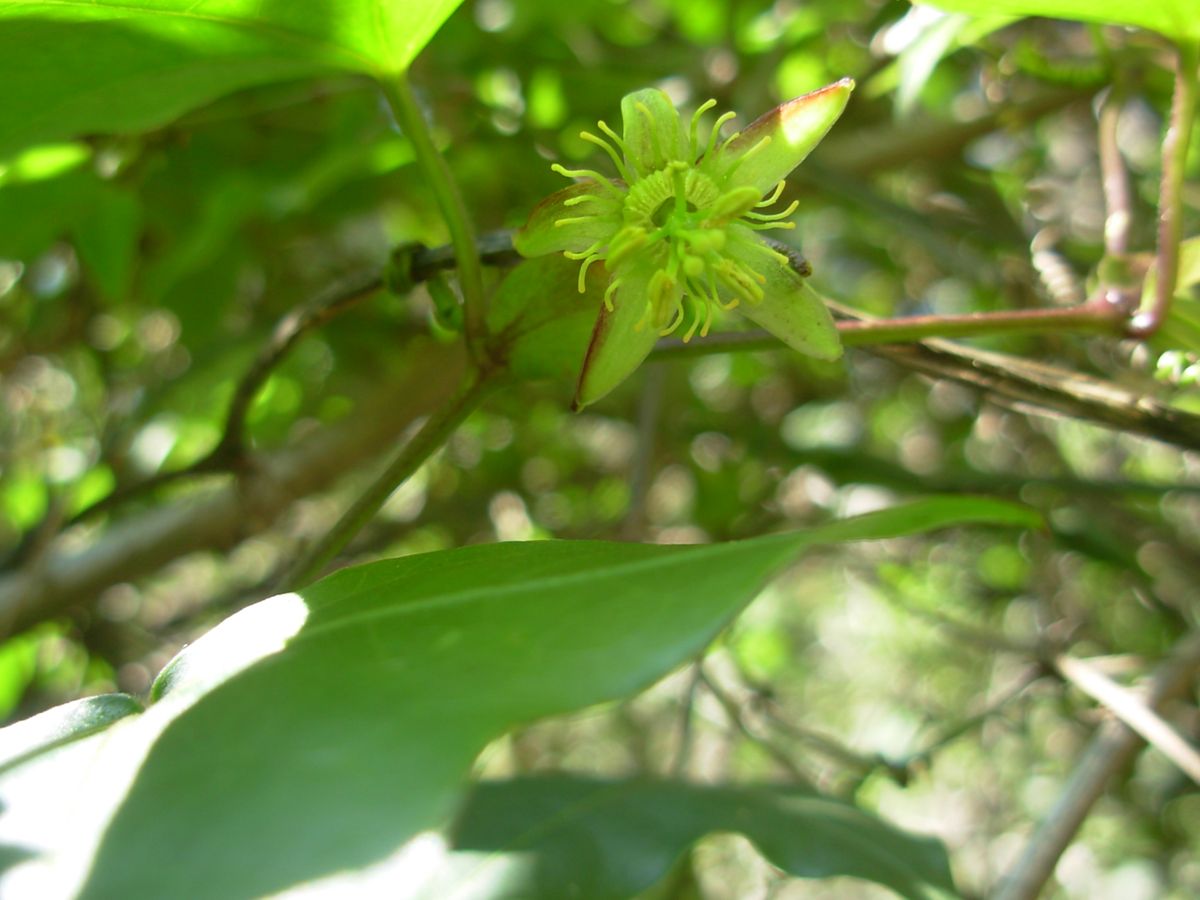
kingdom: Plantae
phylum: Tracheophyta
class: Magnoliopsida
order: Malpighiales
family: Passifloraceae
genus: Passiflora
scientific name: Passiflora eglandulosa
